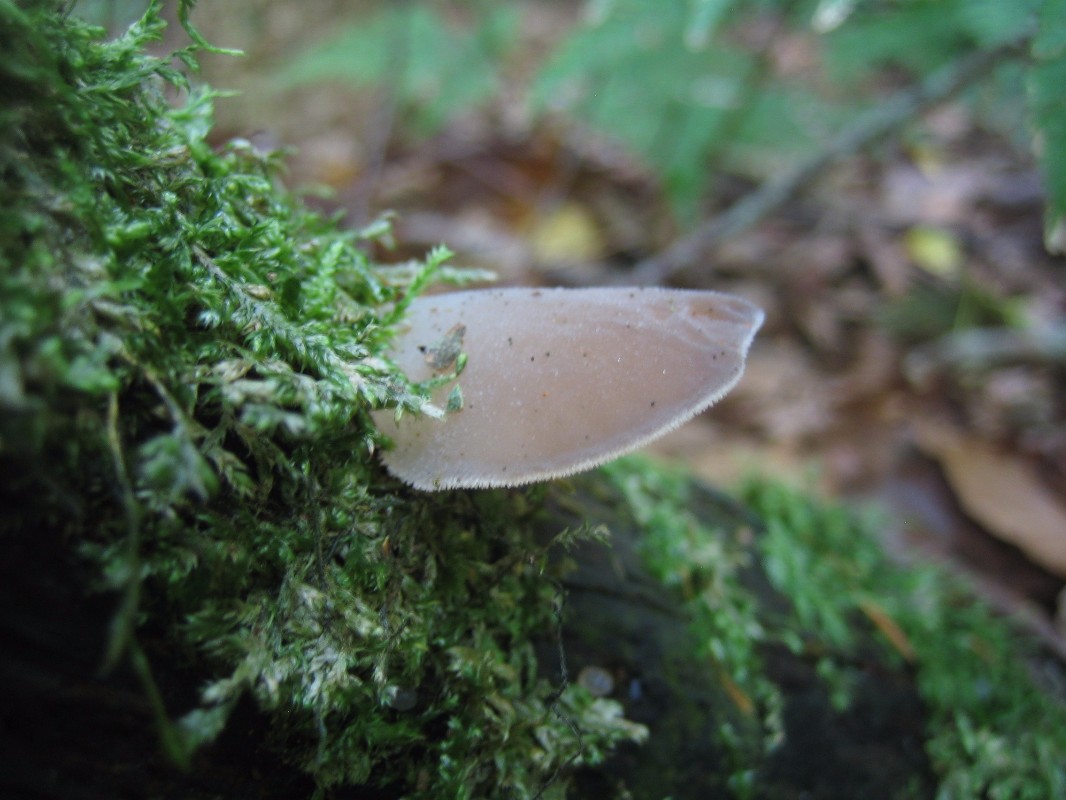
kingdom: Fungi
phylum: Basidiomycota
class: Tremellomycetes
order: Tremellales
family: Exidiaceae
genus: Pseudohydnum
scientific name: Pseudohydnum
